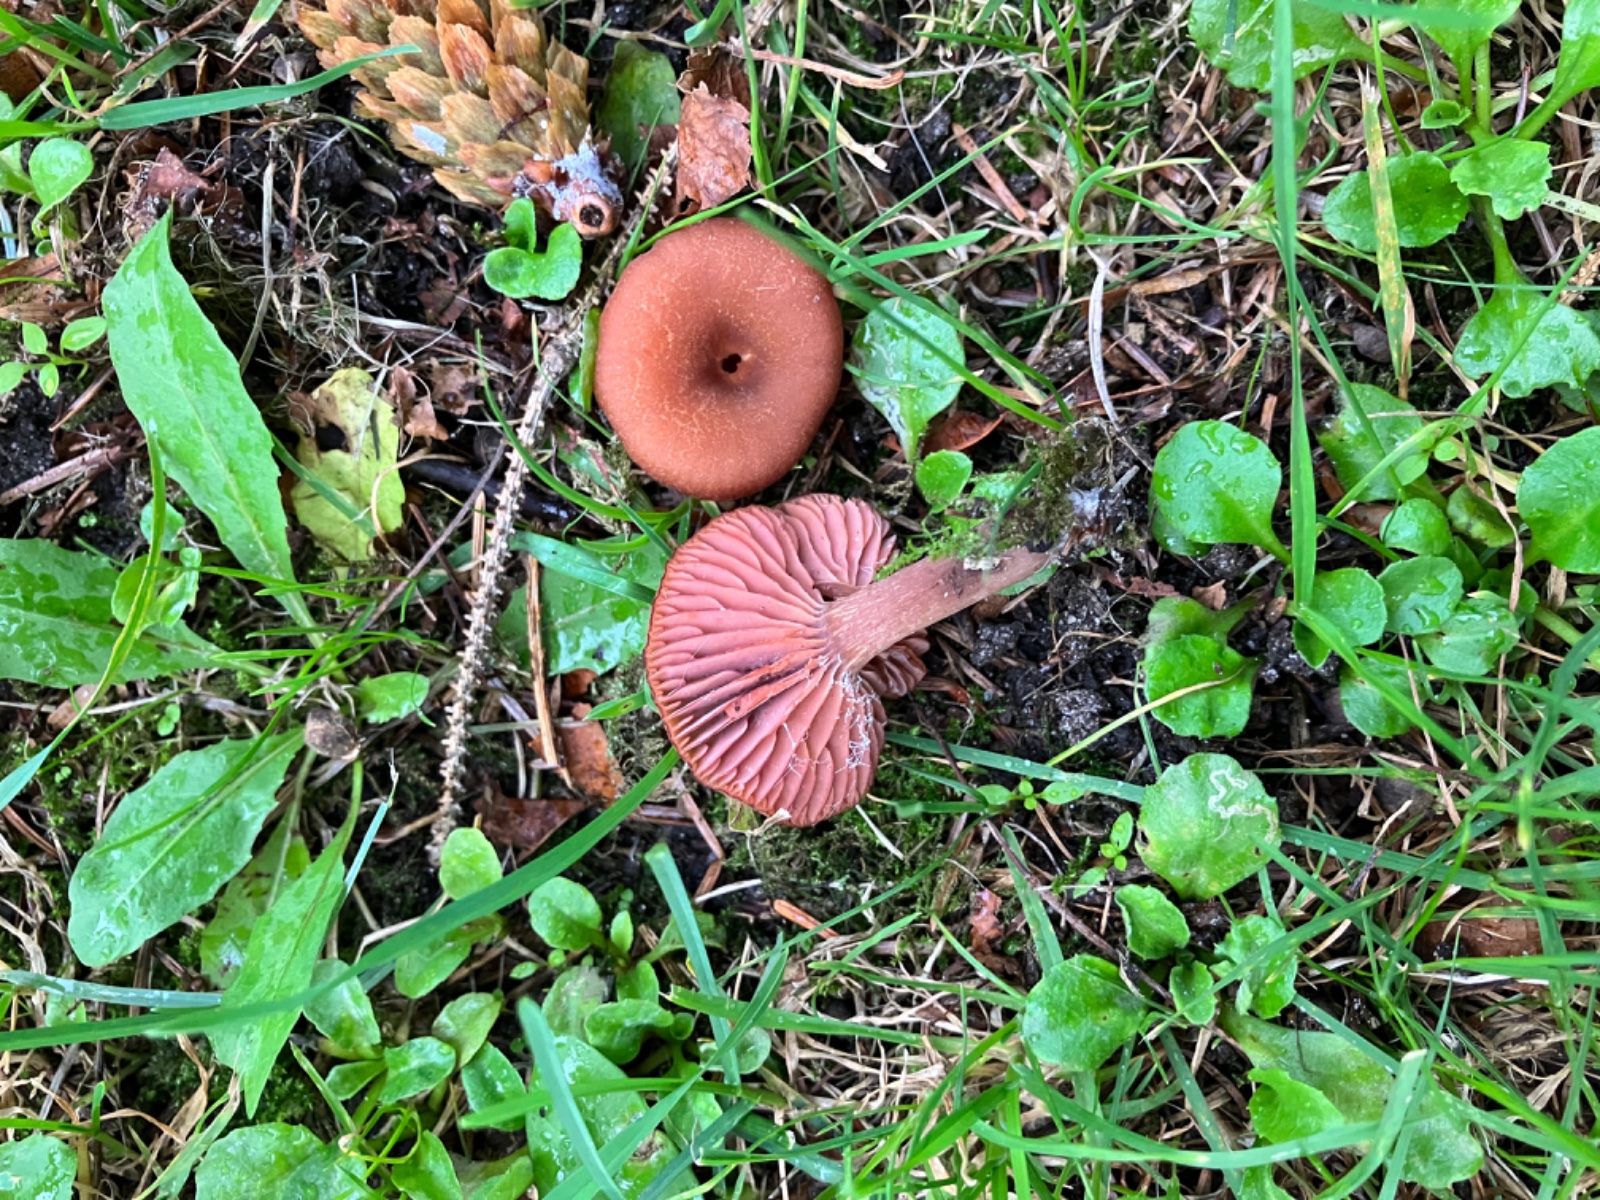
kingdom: Fungi
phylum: Basidiomycota
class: Agaricomycetes
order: Agaricales
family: Hydnangiaceae
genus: Laccaria
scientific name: Laccaria laccata
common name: rød ametysthat
